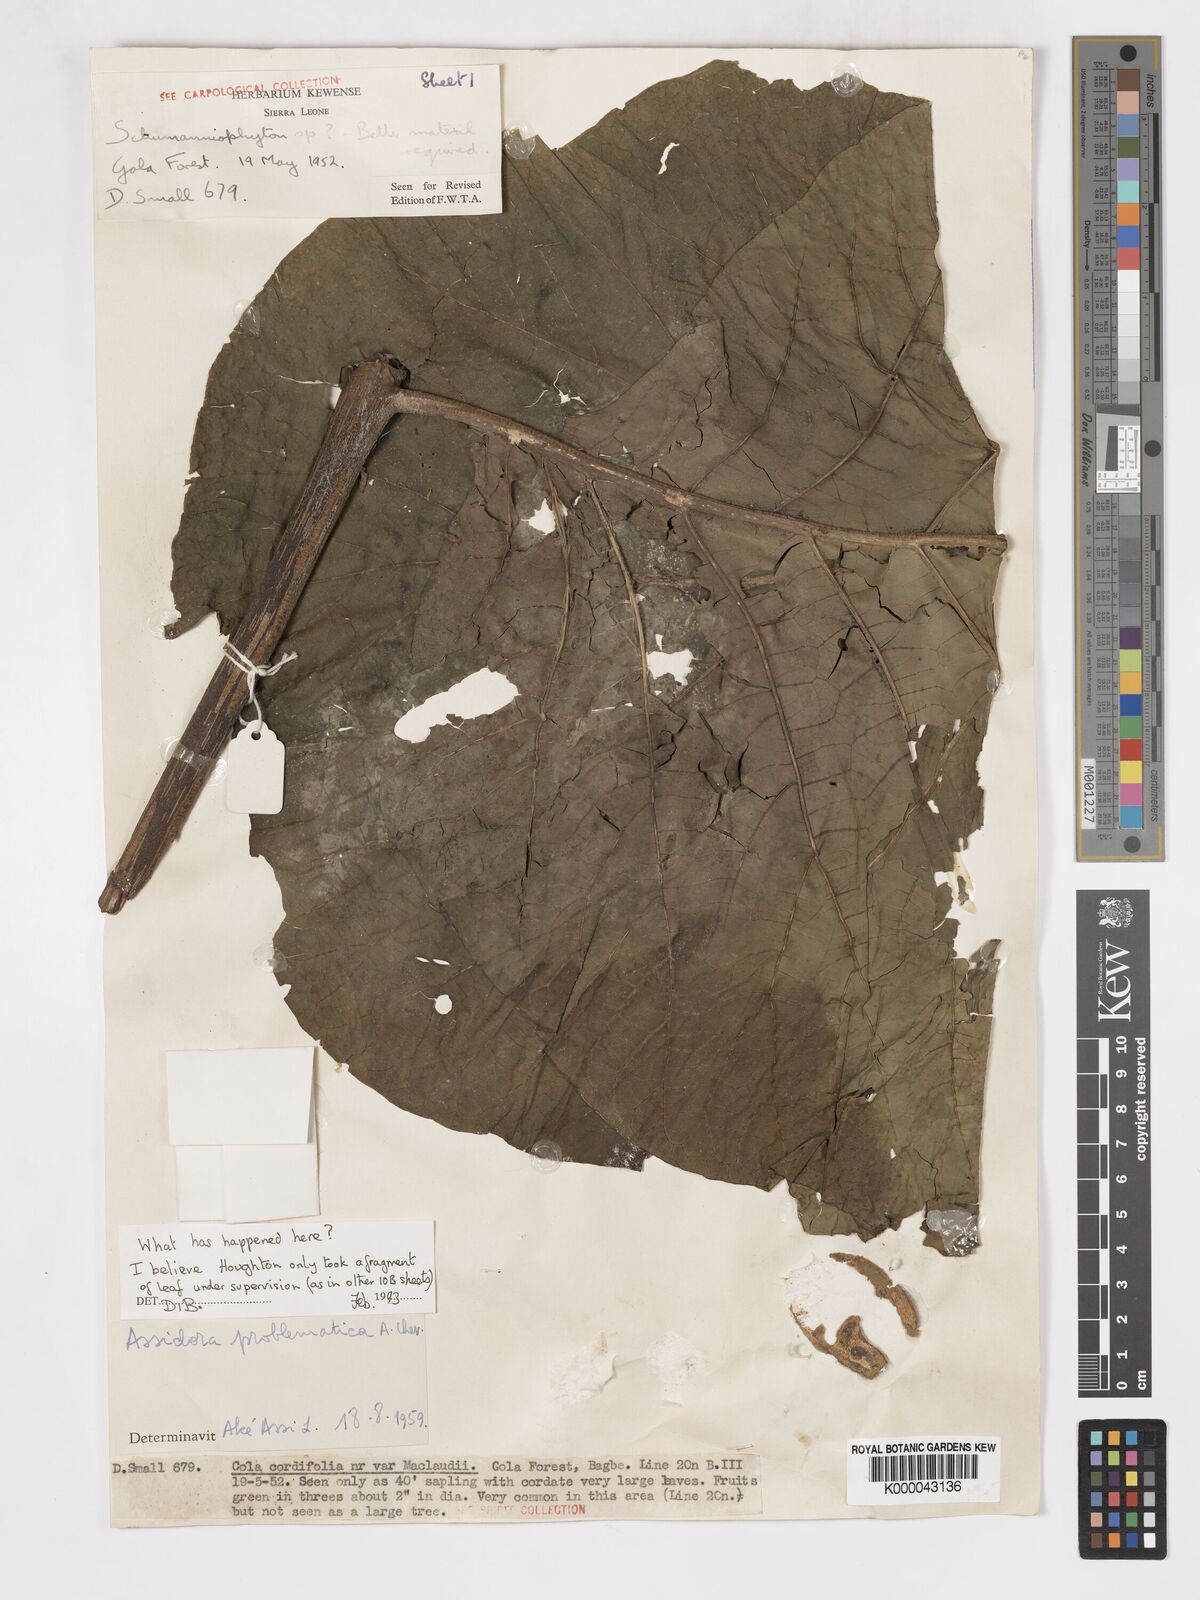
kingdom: Plantae
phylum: Tracheophyta
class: Magnoliopsida
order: Gentianales
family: Rubiaceae
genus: Schumanniophyton
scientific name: Schumanniophyton
